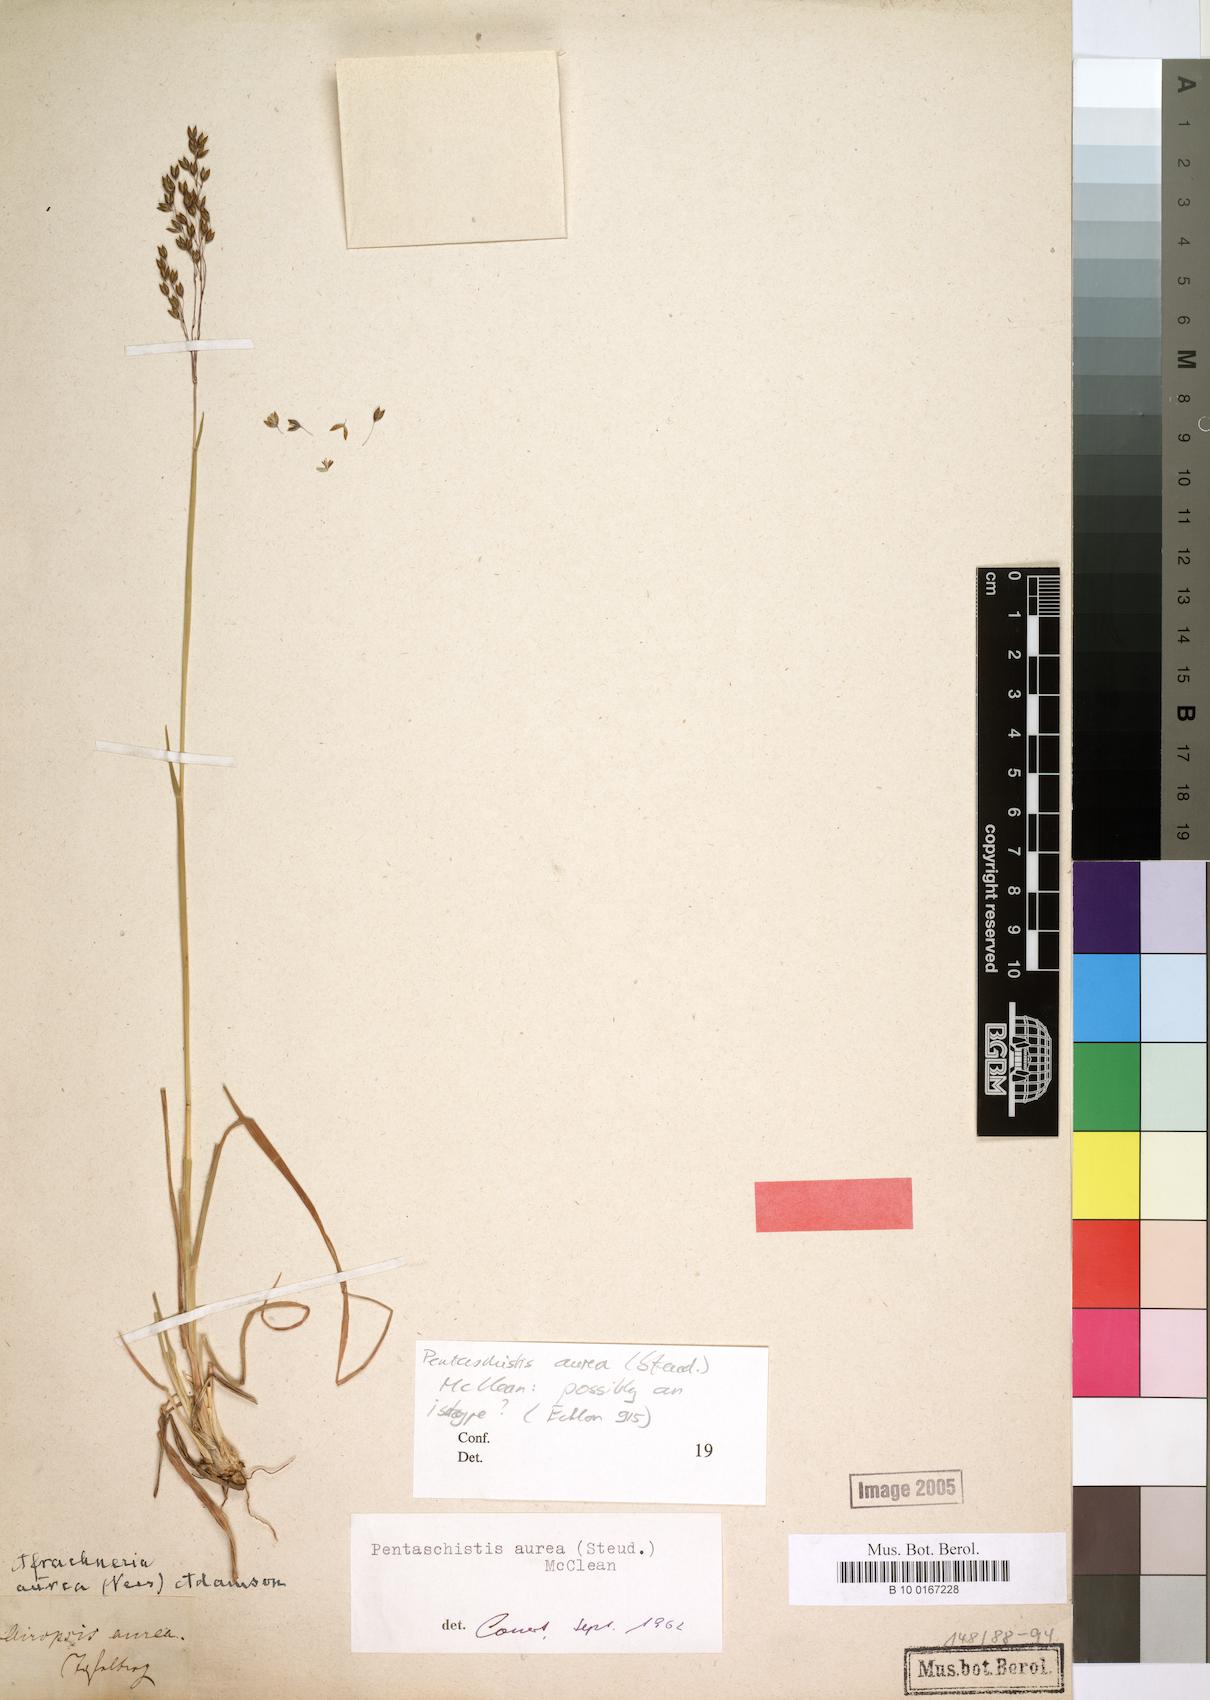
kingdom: Plantae
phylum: Tracheophyta
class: Liliopsida
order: Poales
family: Poaceae
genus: Pentameris
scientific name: Pentameris aurea
